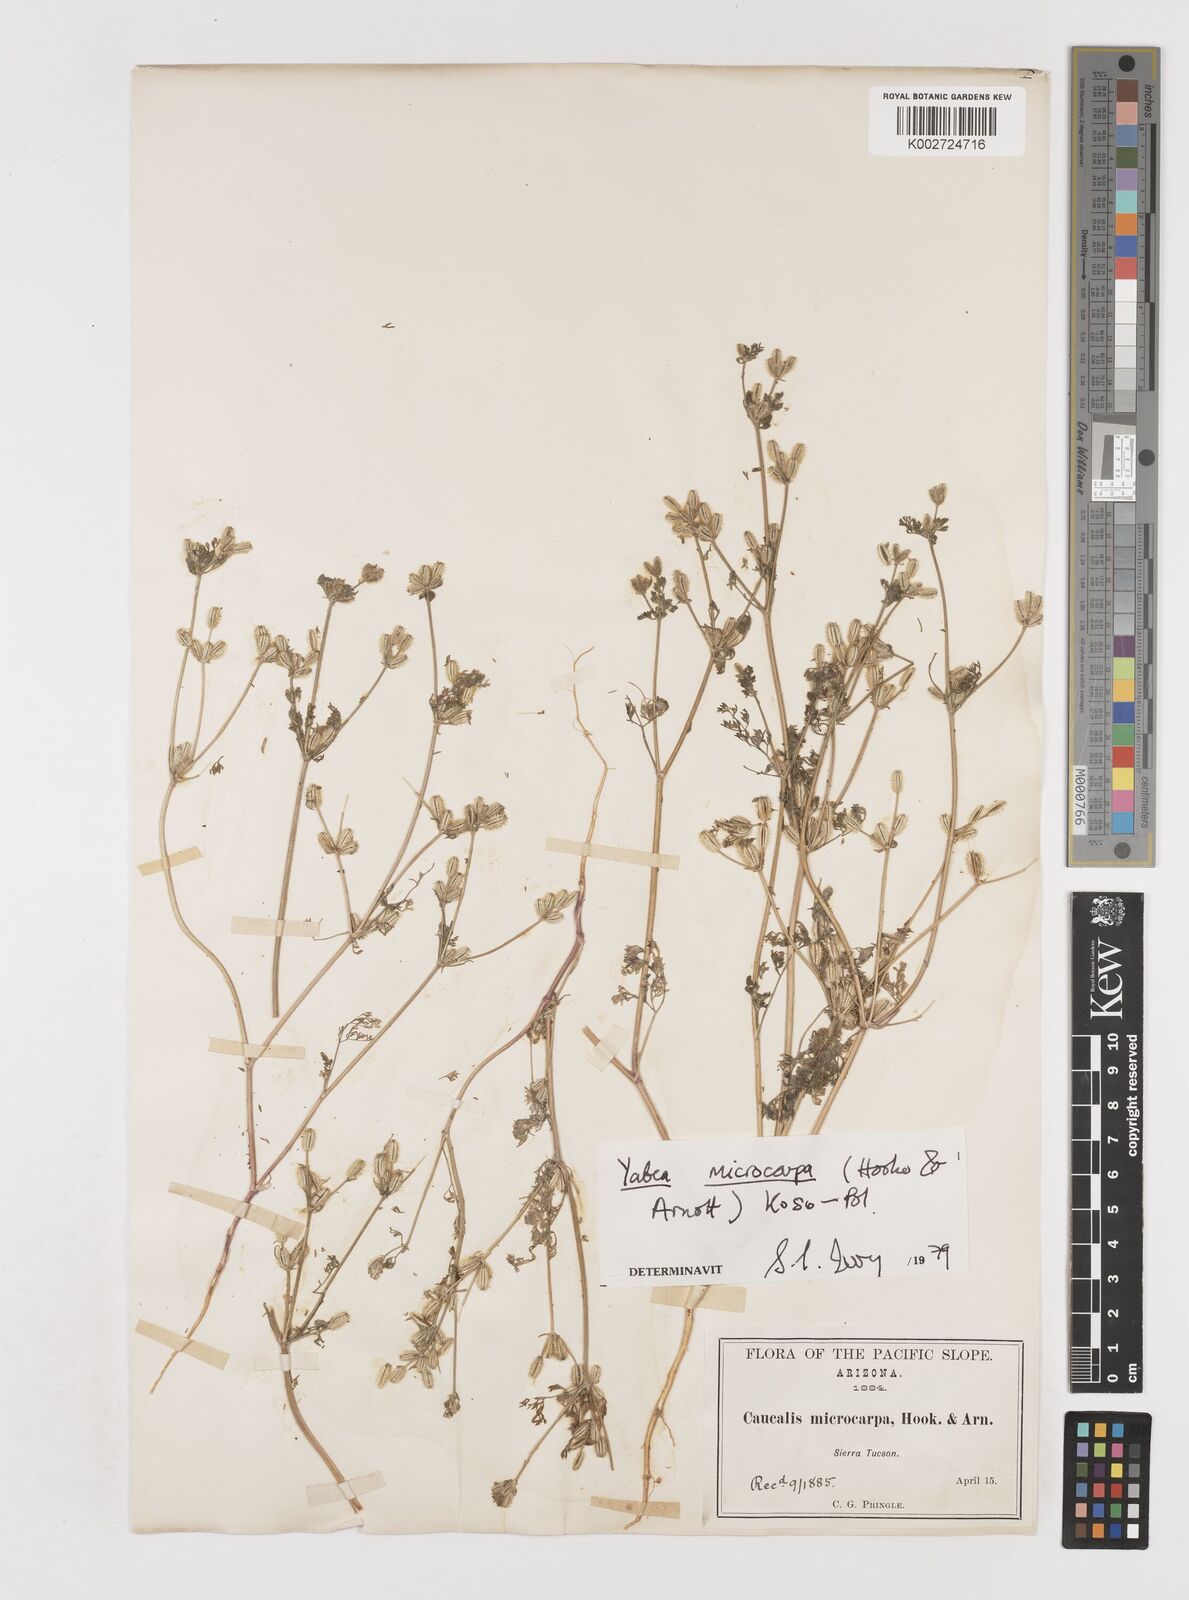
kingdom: Plantae
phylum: Tracheophyta
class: Magnoliopsida
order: Apiales
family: Apiaceae
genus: Yabea
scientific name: Yabea microcarpa
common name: False carrot
